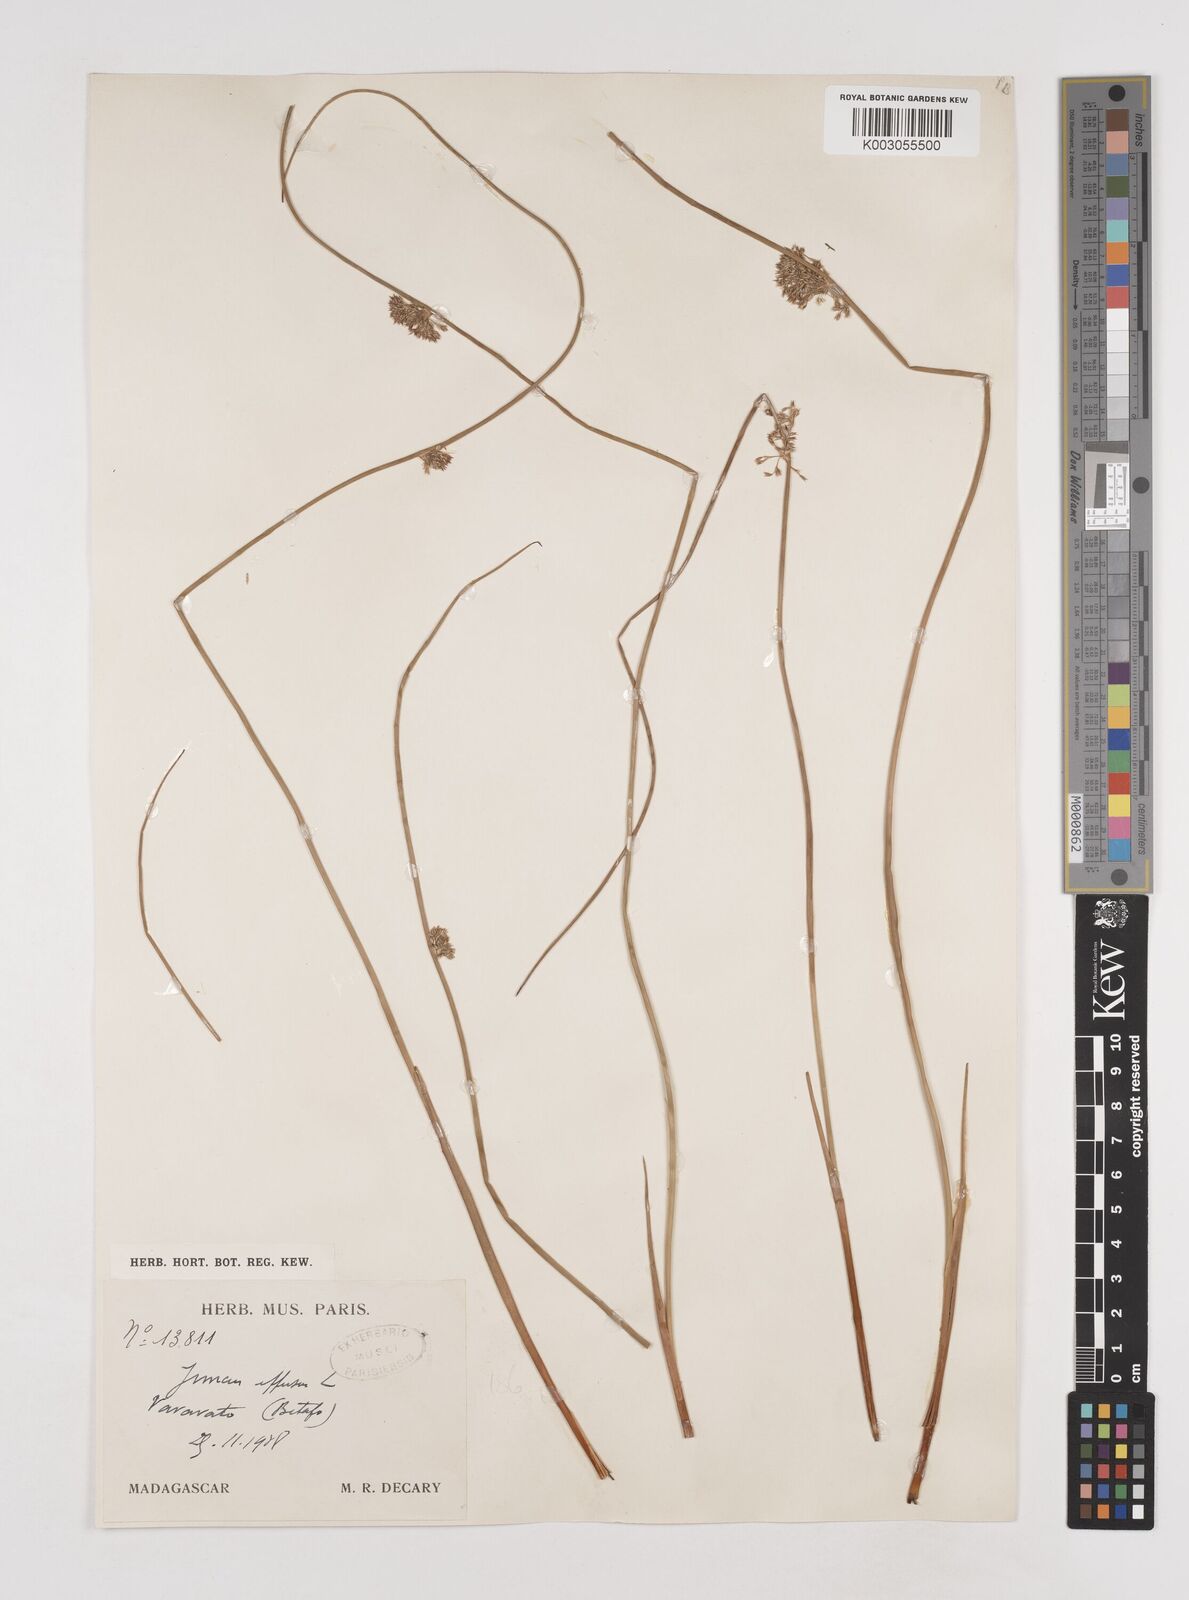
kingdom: Plantae
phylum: Tracheophyta
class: Liliopsida
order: Poales
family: Juncaceae
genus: Juncus
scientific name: Juncus effusus
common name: Soft rush
